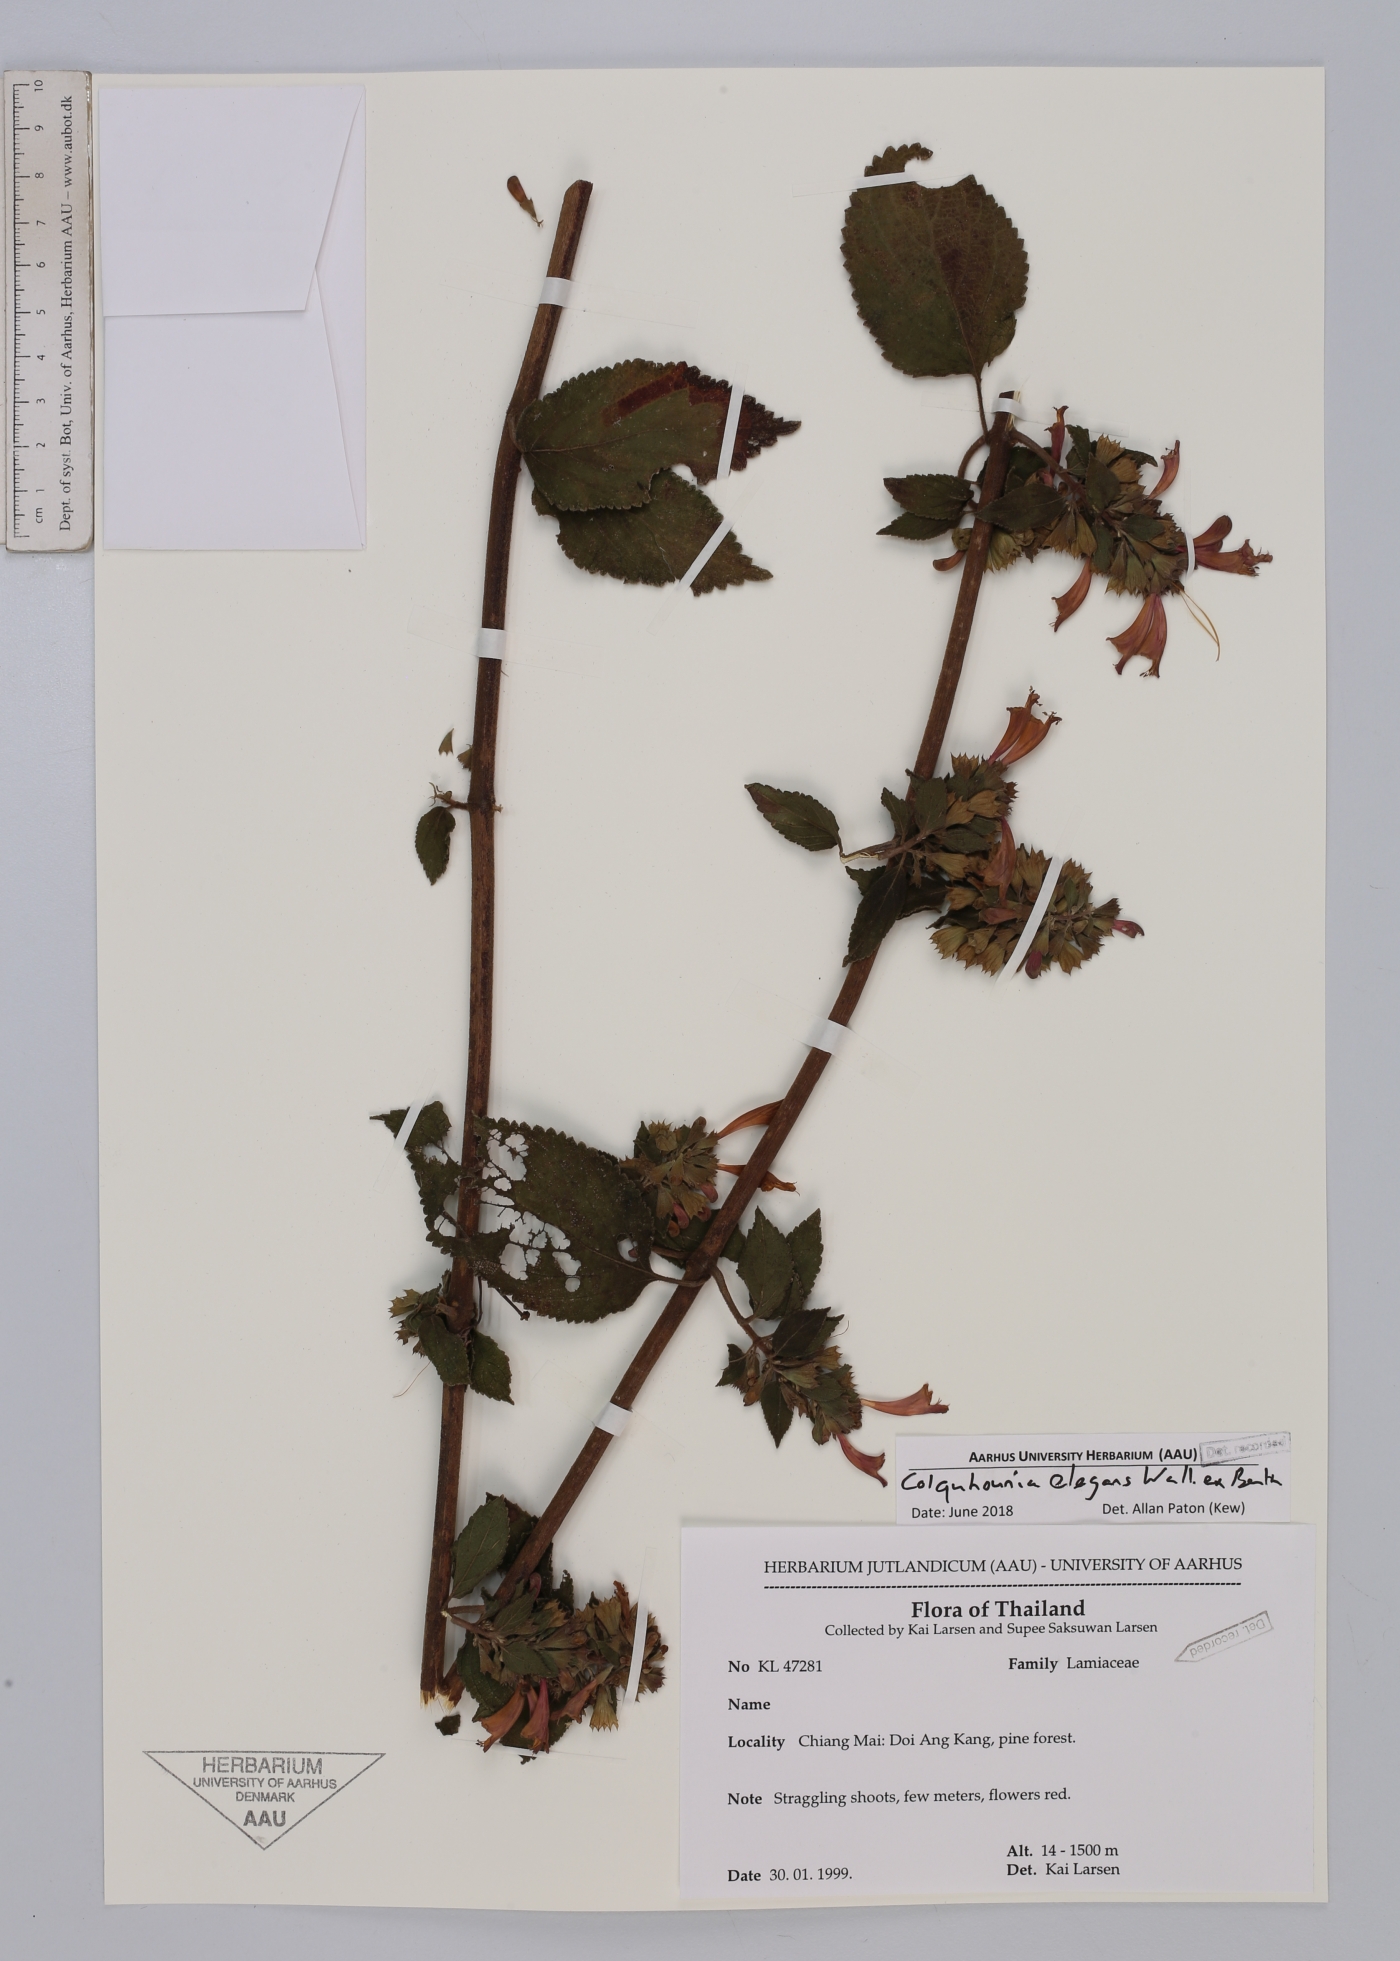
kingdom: Plantae
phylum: Tracheophyta
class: Magnoliopsida
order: Lamiales
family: Lamiaceae
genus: Colquhounia
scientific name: Colquhounia elegans
